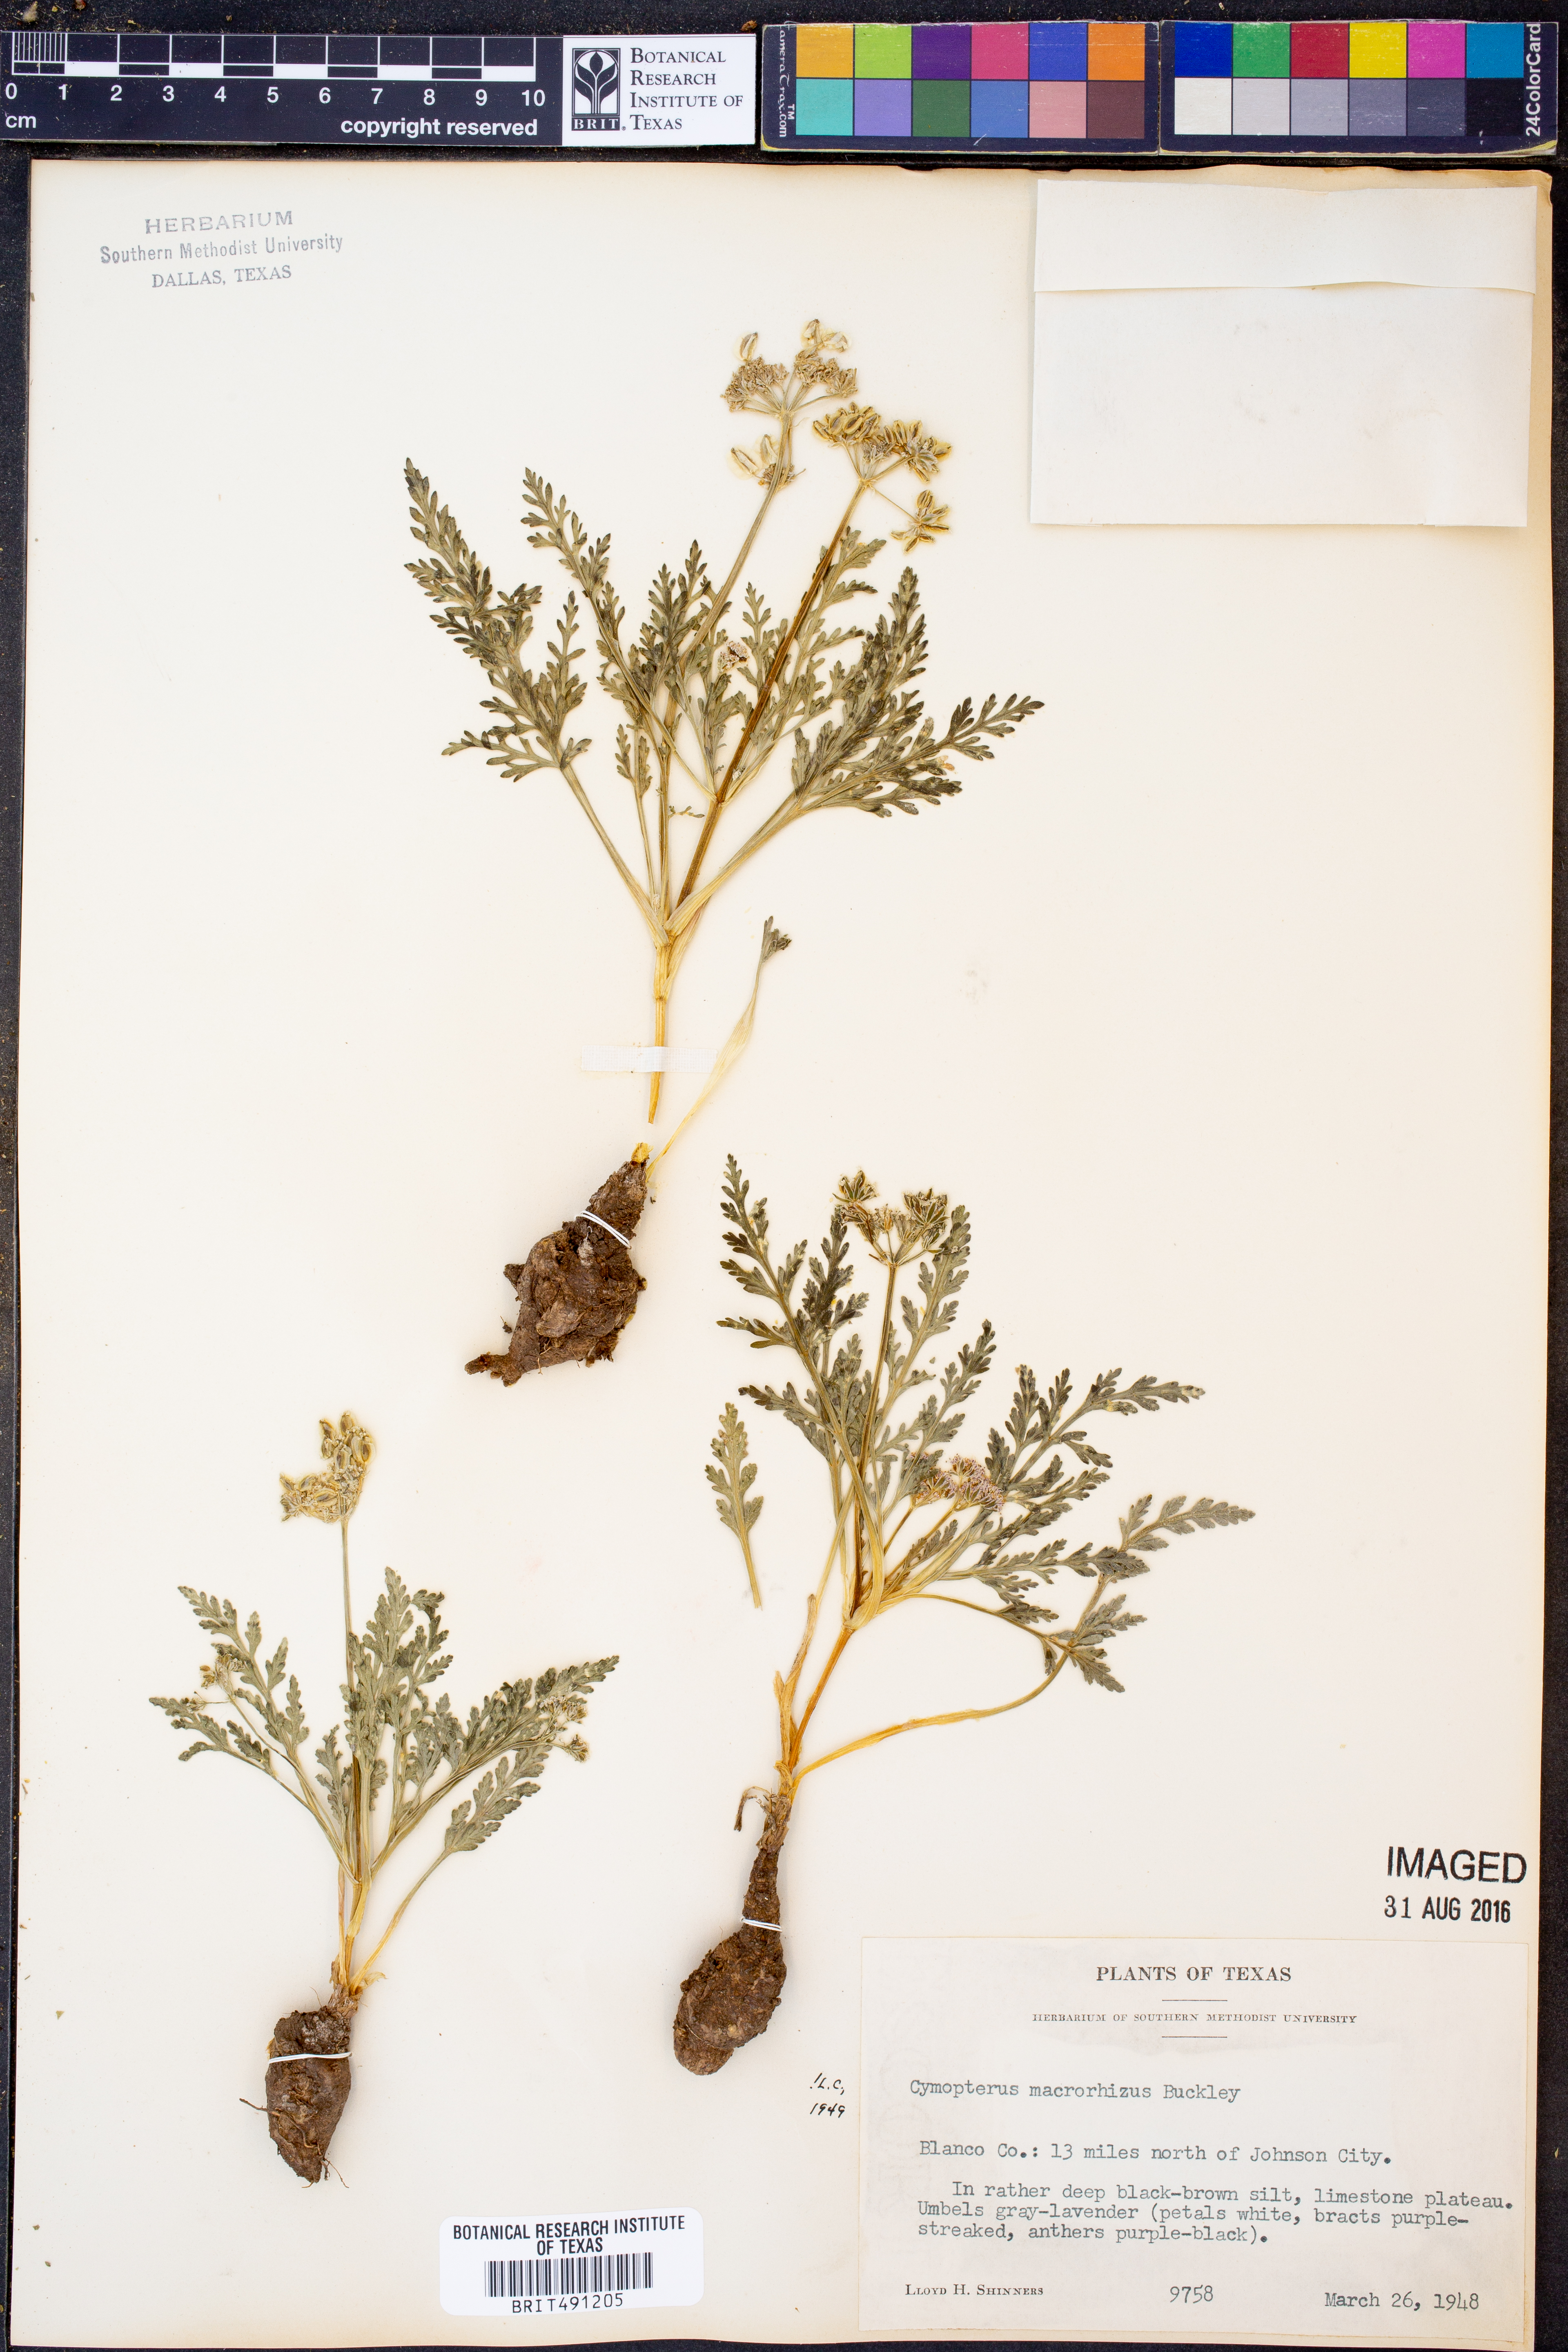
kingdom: Plantae
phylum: Tracheophyta
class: Magnoliopsida
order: Apiales
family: Apiaceae
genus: Vesper
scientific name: Vesper macrorhizus
